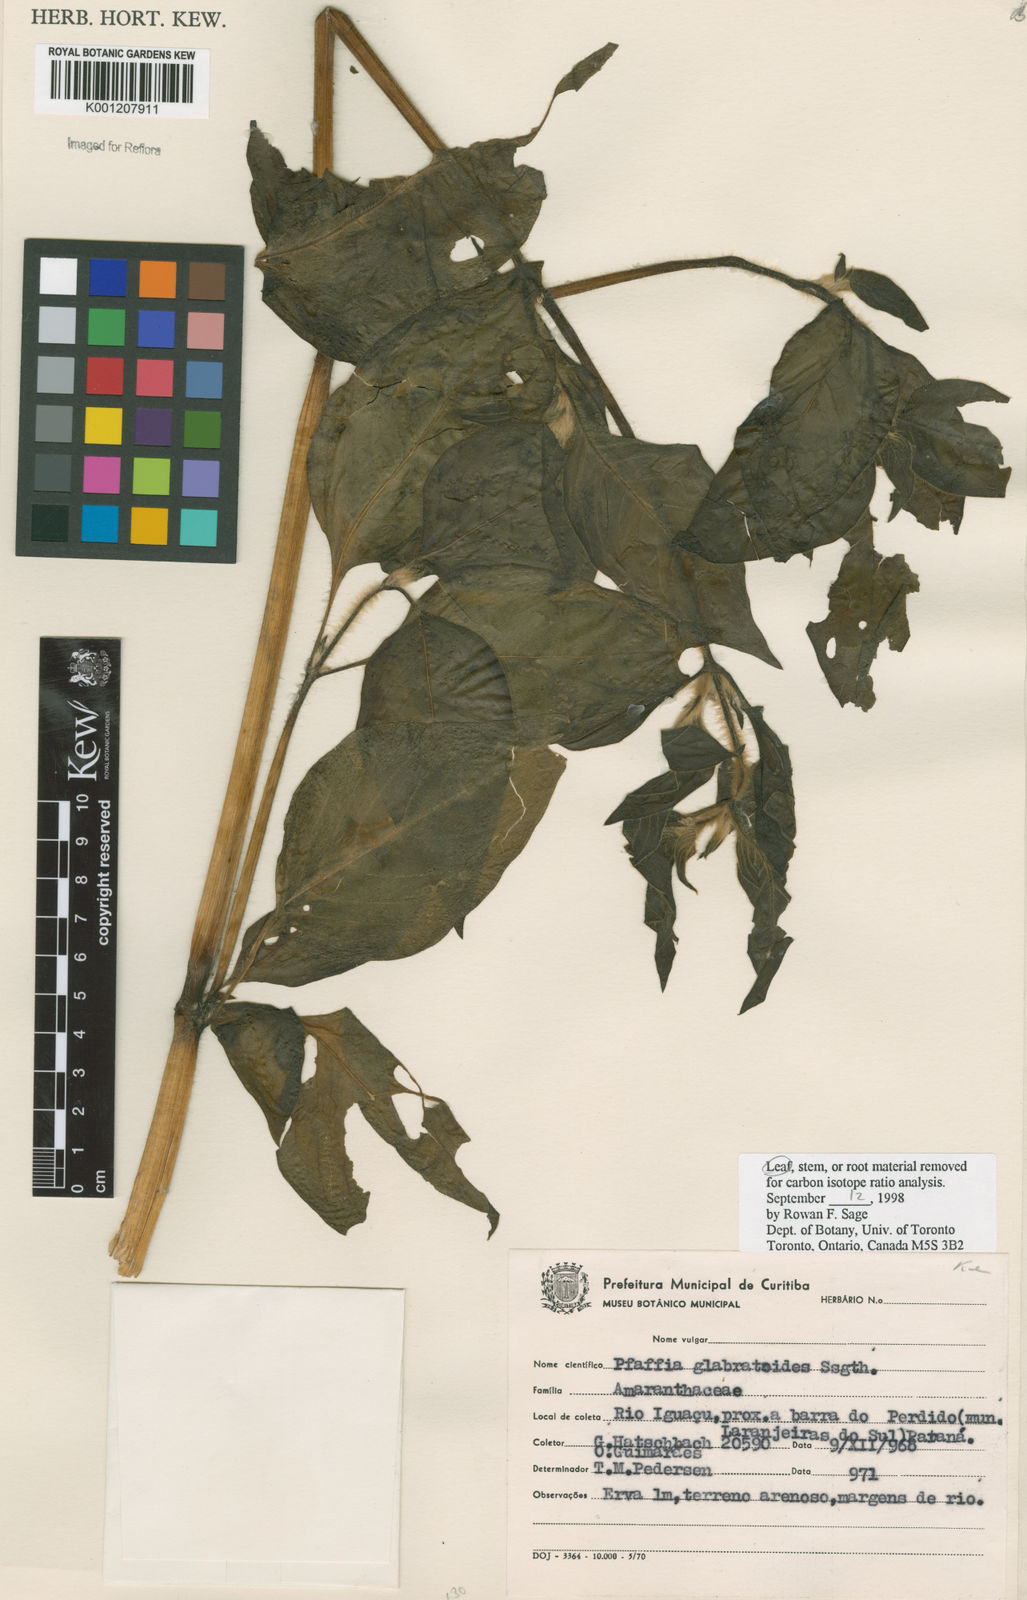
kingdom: Plantae
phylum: Tracheophyta
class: Magnoliopsida
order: Caryophyllales
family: Amaranthaceae
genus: Quaternella
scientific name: Quaternella glabratoides
